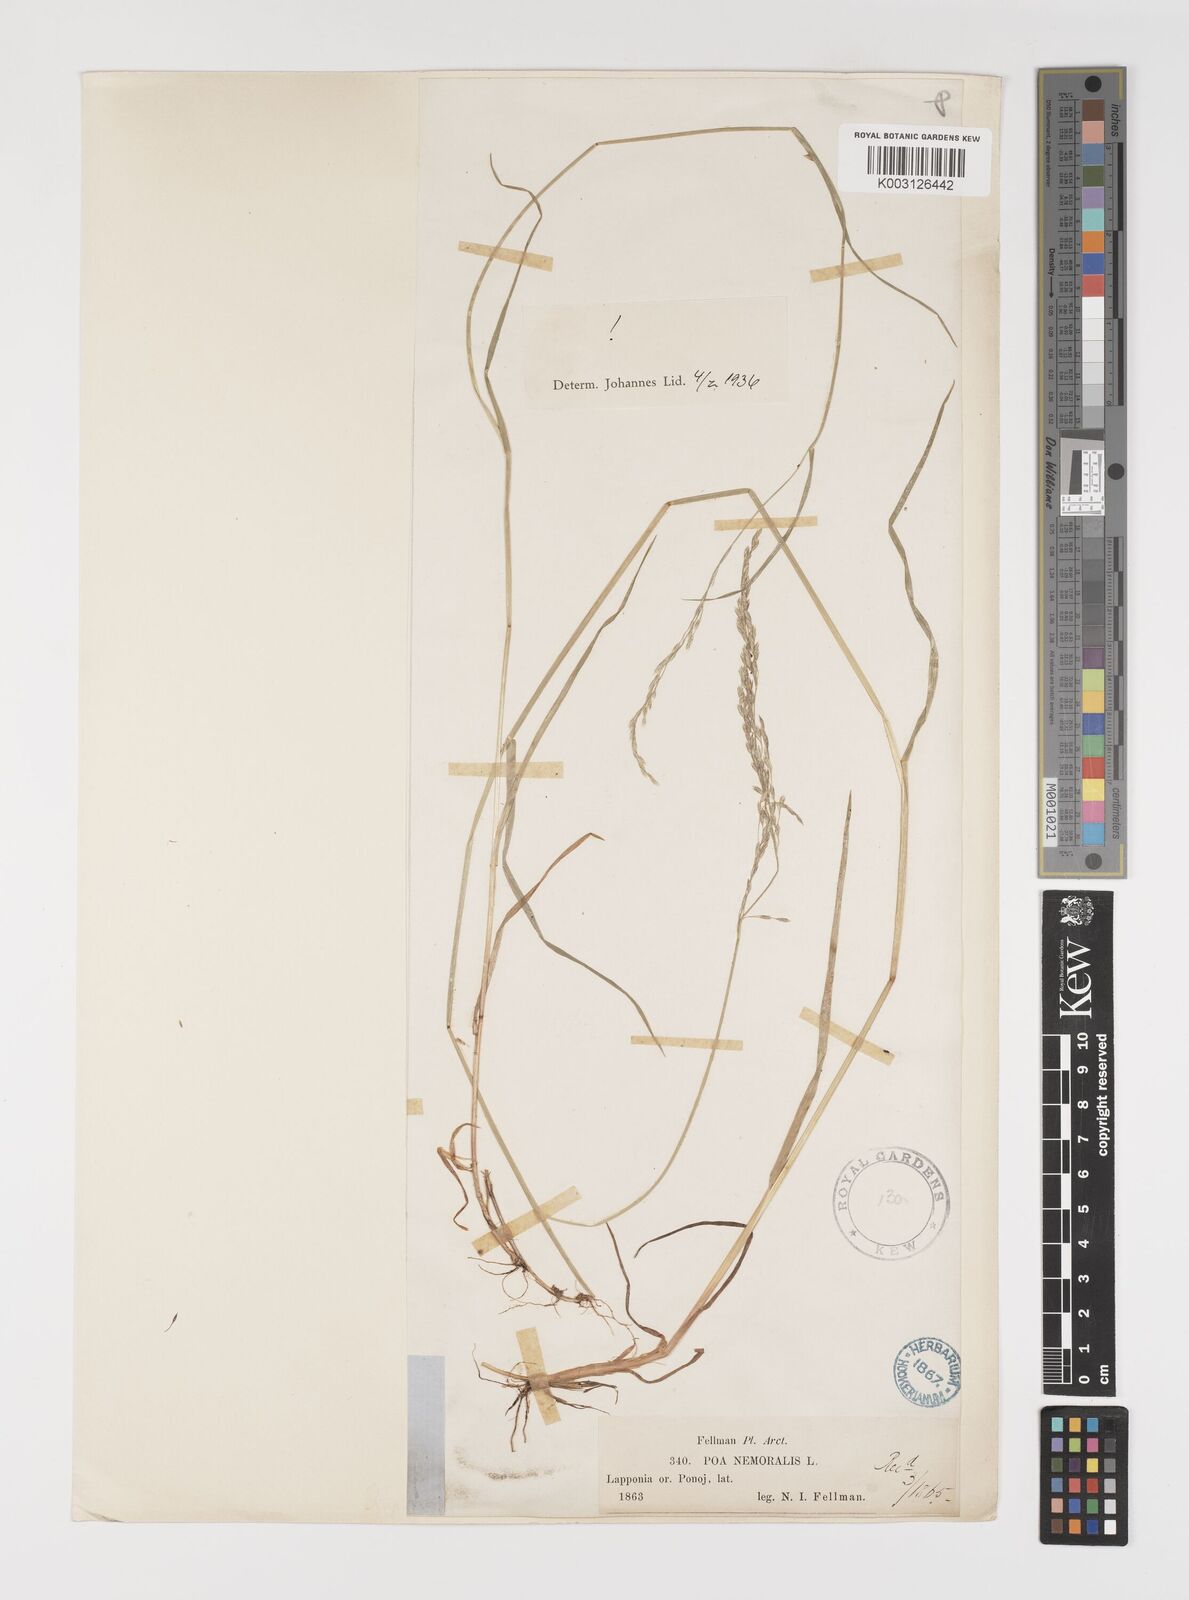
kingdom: Plantae
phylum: Tracheophyta
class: Liliopsida
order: Poales
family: Poaceae
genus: Poa
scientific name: Poa nemoralis
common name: Wood bluegrass
